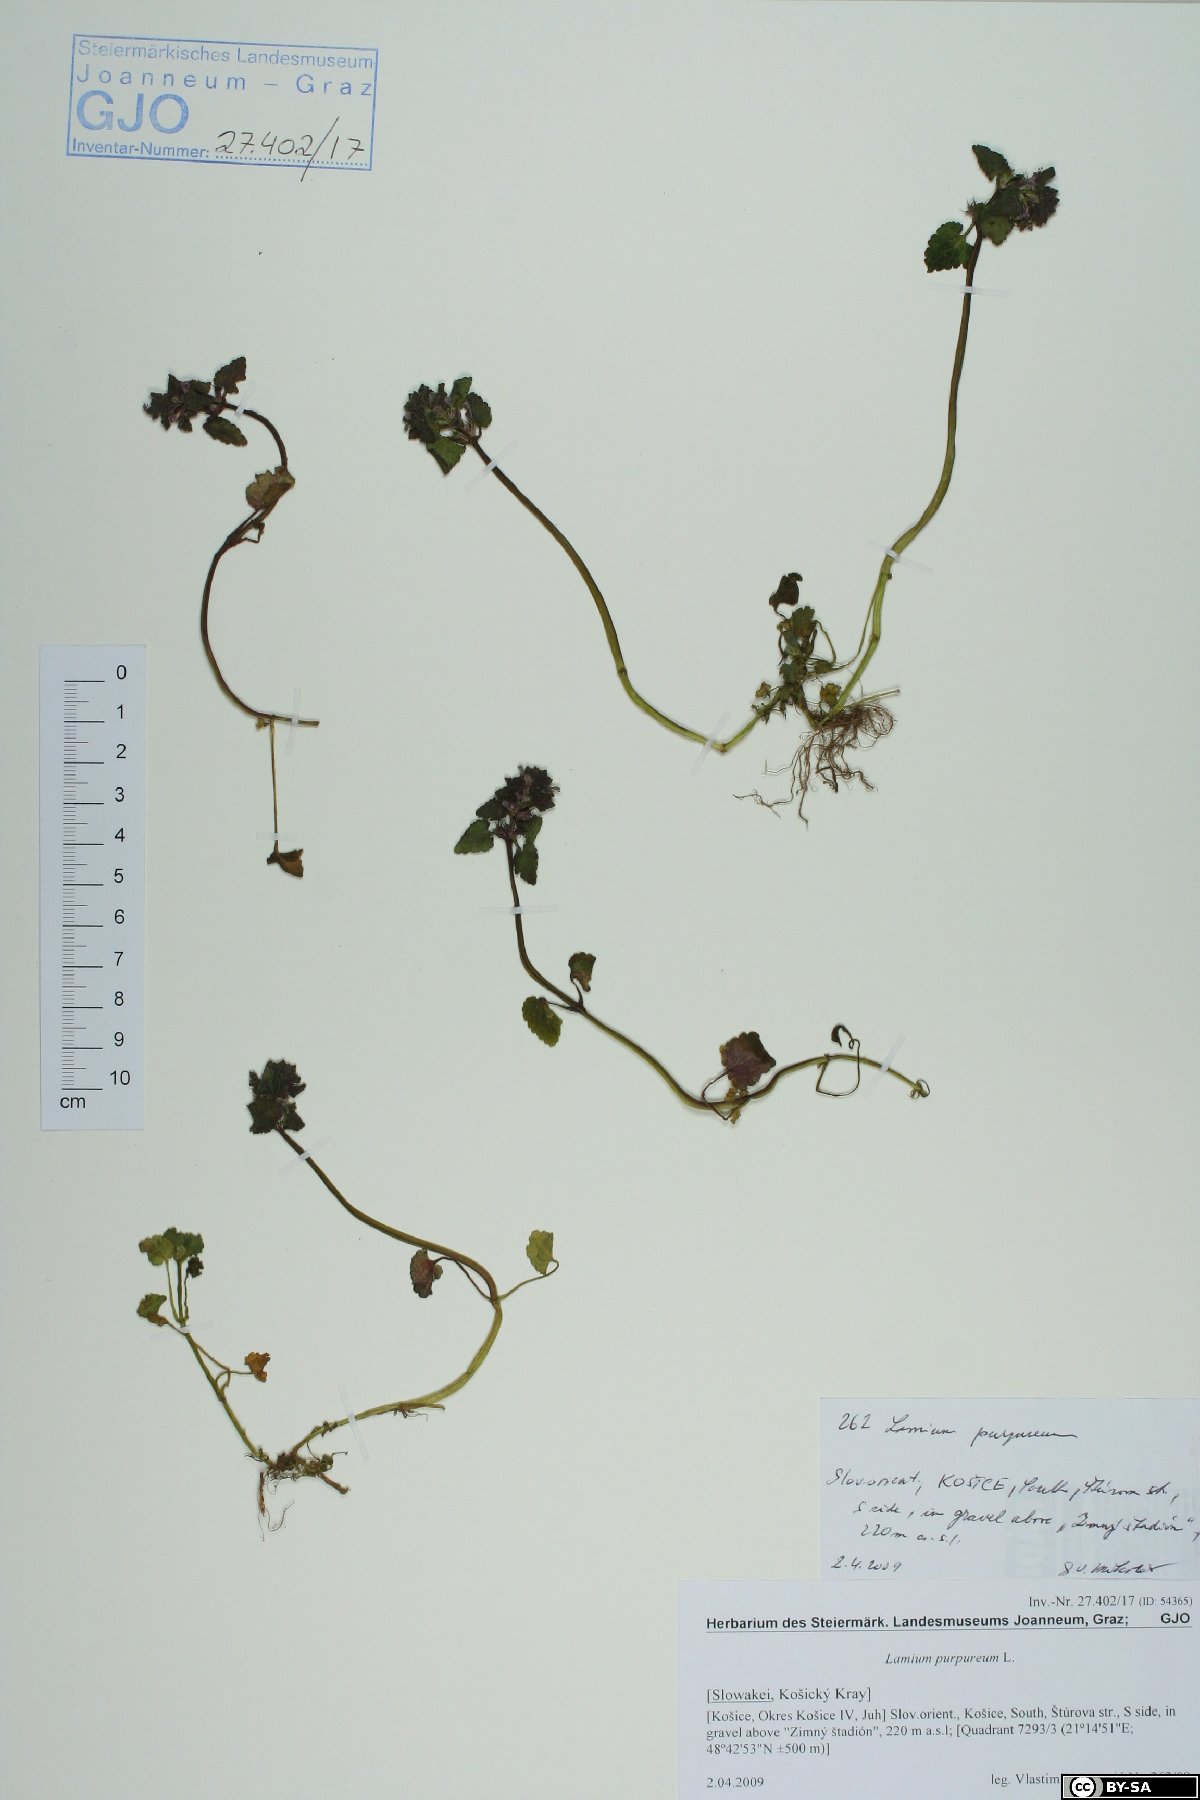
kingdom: Plantae
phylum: Tracheophyta
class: Magnoliopsida
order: Lamiales
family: Lamiaceae
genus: Lamium
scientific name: Lamium purpureum
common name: Red dead-nettle
